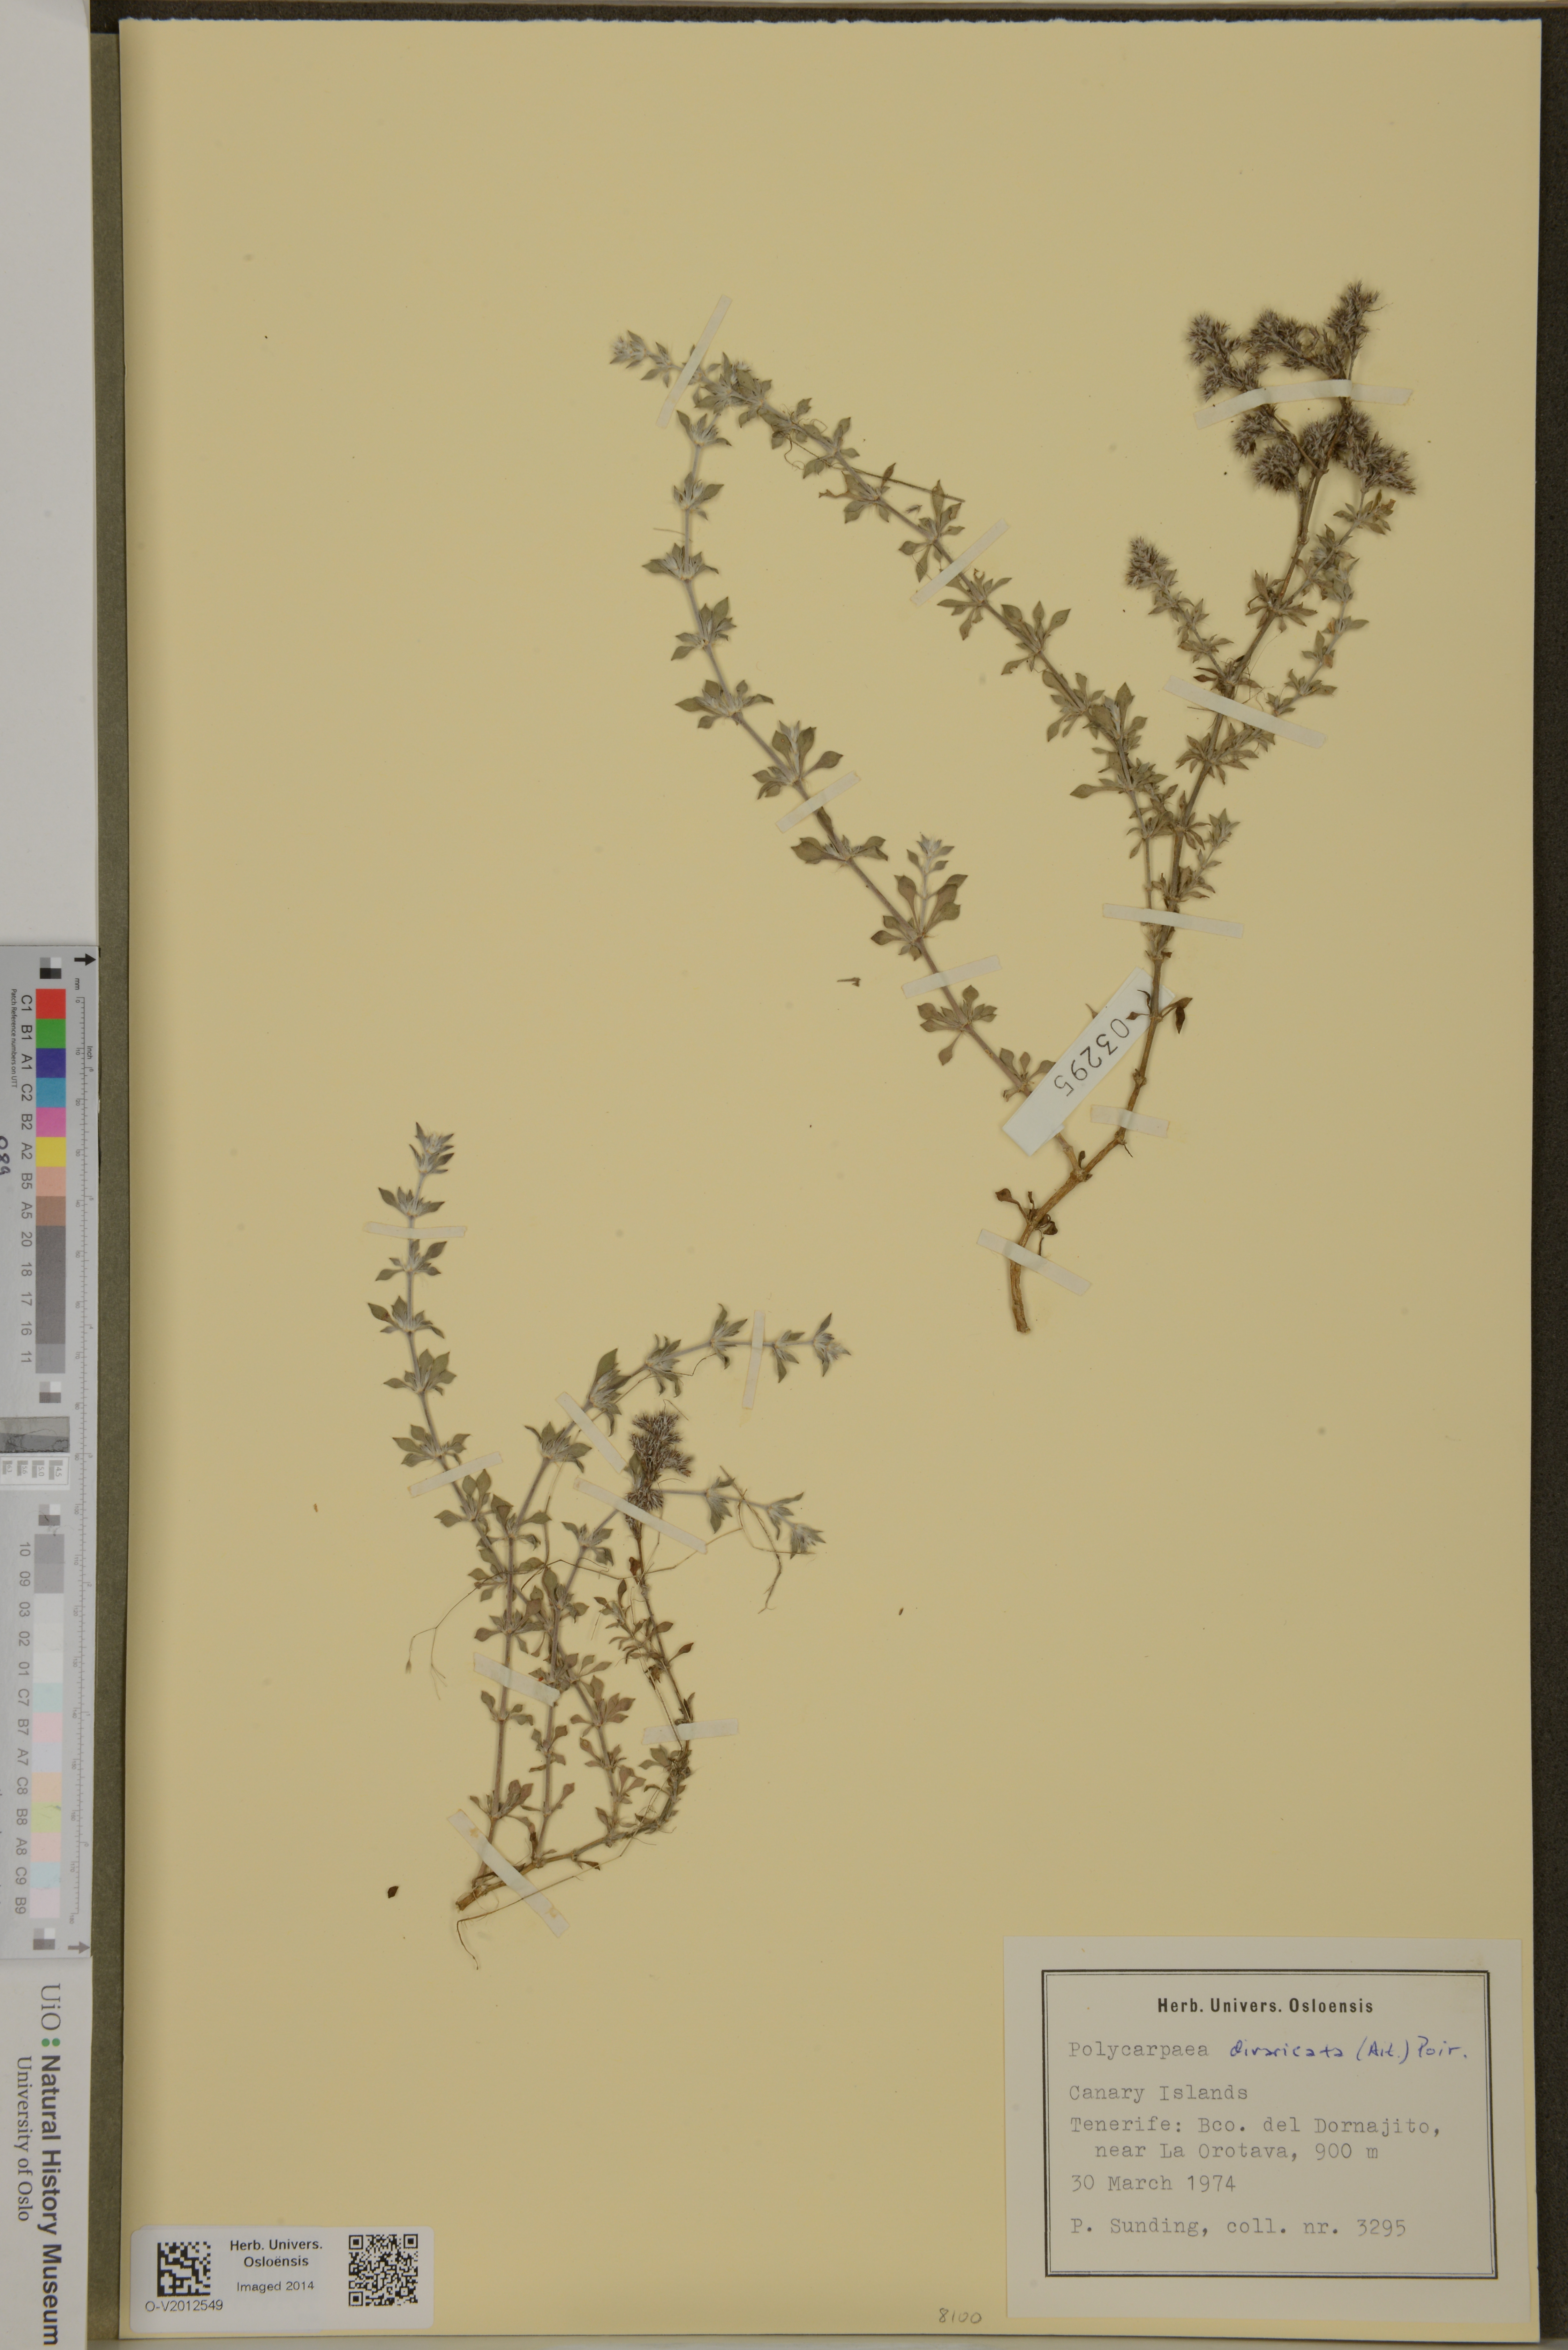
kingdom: Plantae
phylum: Tracheophyta
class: Magnoliopsida
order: Caryophyllales
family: Caryophyllaceae
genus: Polycarpaea
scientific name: Polycarpaea divaricata
